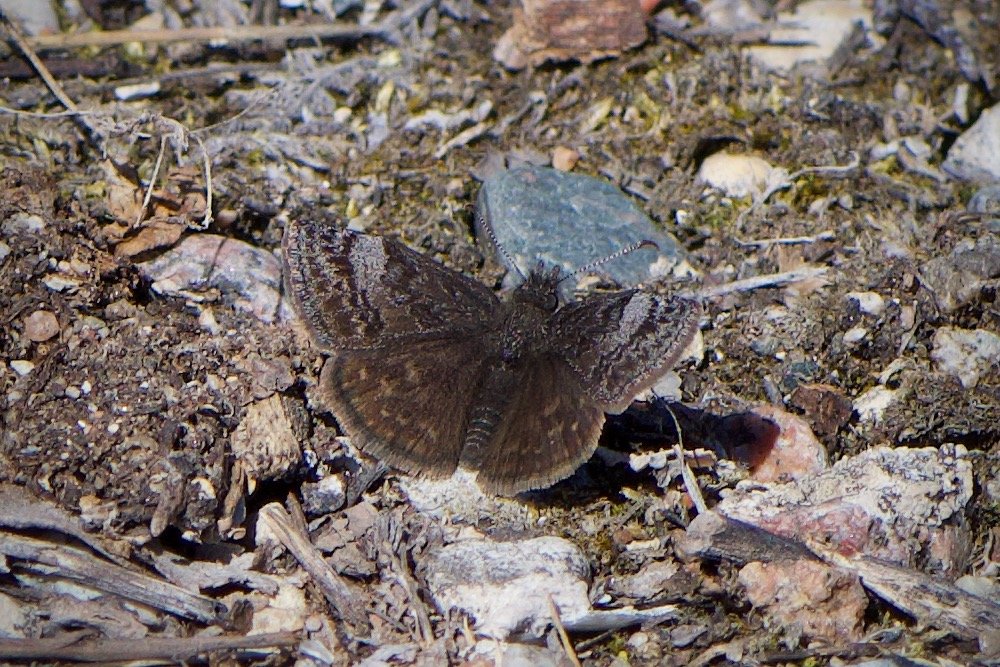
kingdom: Animalia
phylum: Arthropoda
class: Insecta
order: Lepidoptera
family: Hesperiidae
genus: Erynnis
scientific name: Erynnis icelus
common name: Dreamy Duskywing
